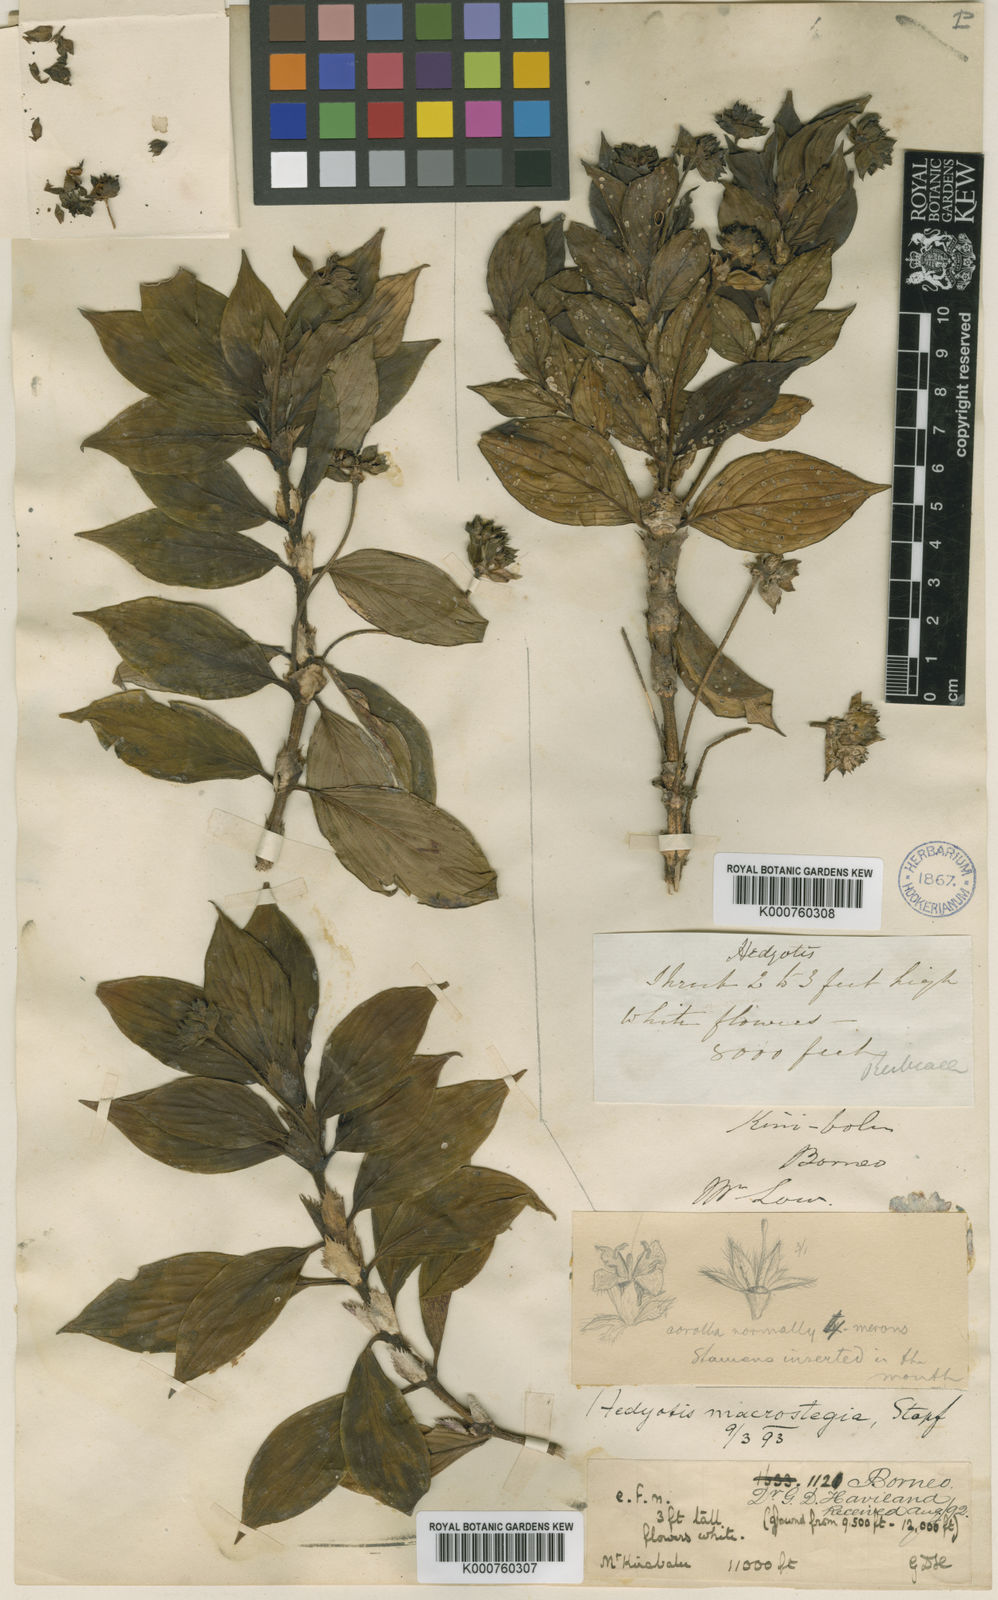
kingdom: Plantae
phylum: Tracheophyta
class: Magnoliopsida
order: Gentianales
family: Rubiaceae
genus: Hedyotis
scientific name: Hedyotis macrostegia
